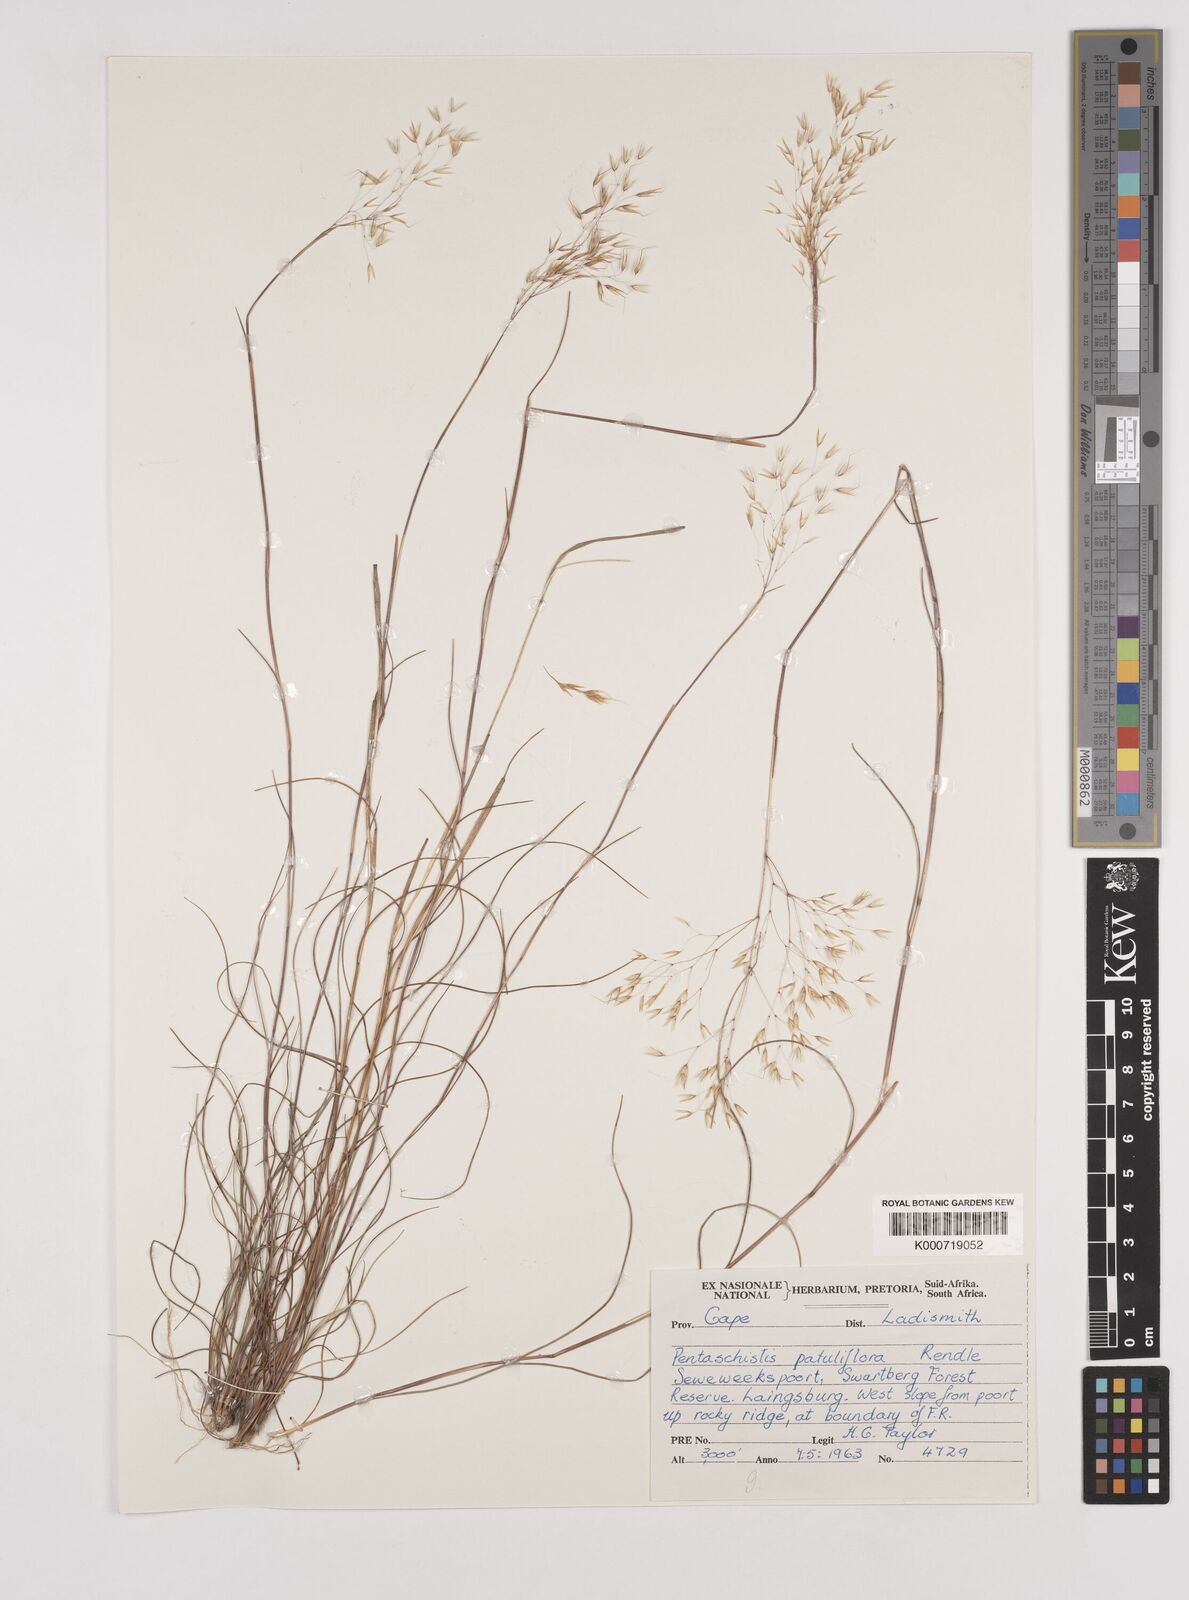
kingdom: Plantae
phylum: Tracheophyta
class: Liliopsida
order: Poales
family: Poaceae
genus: Pentameris
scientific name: Pentameris cirrhulosa
